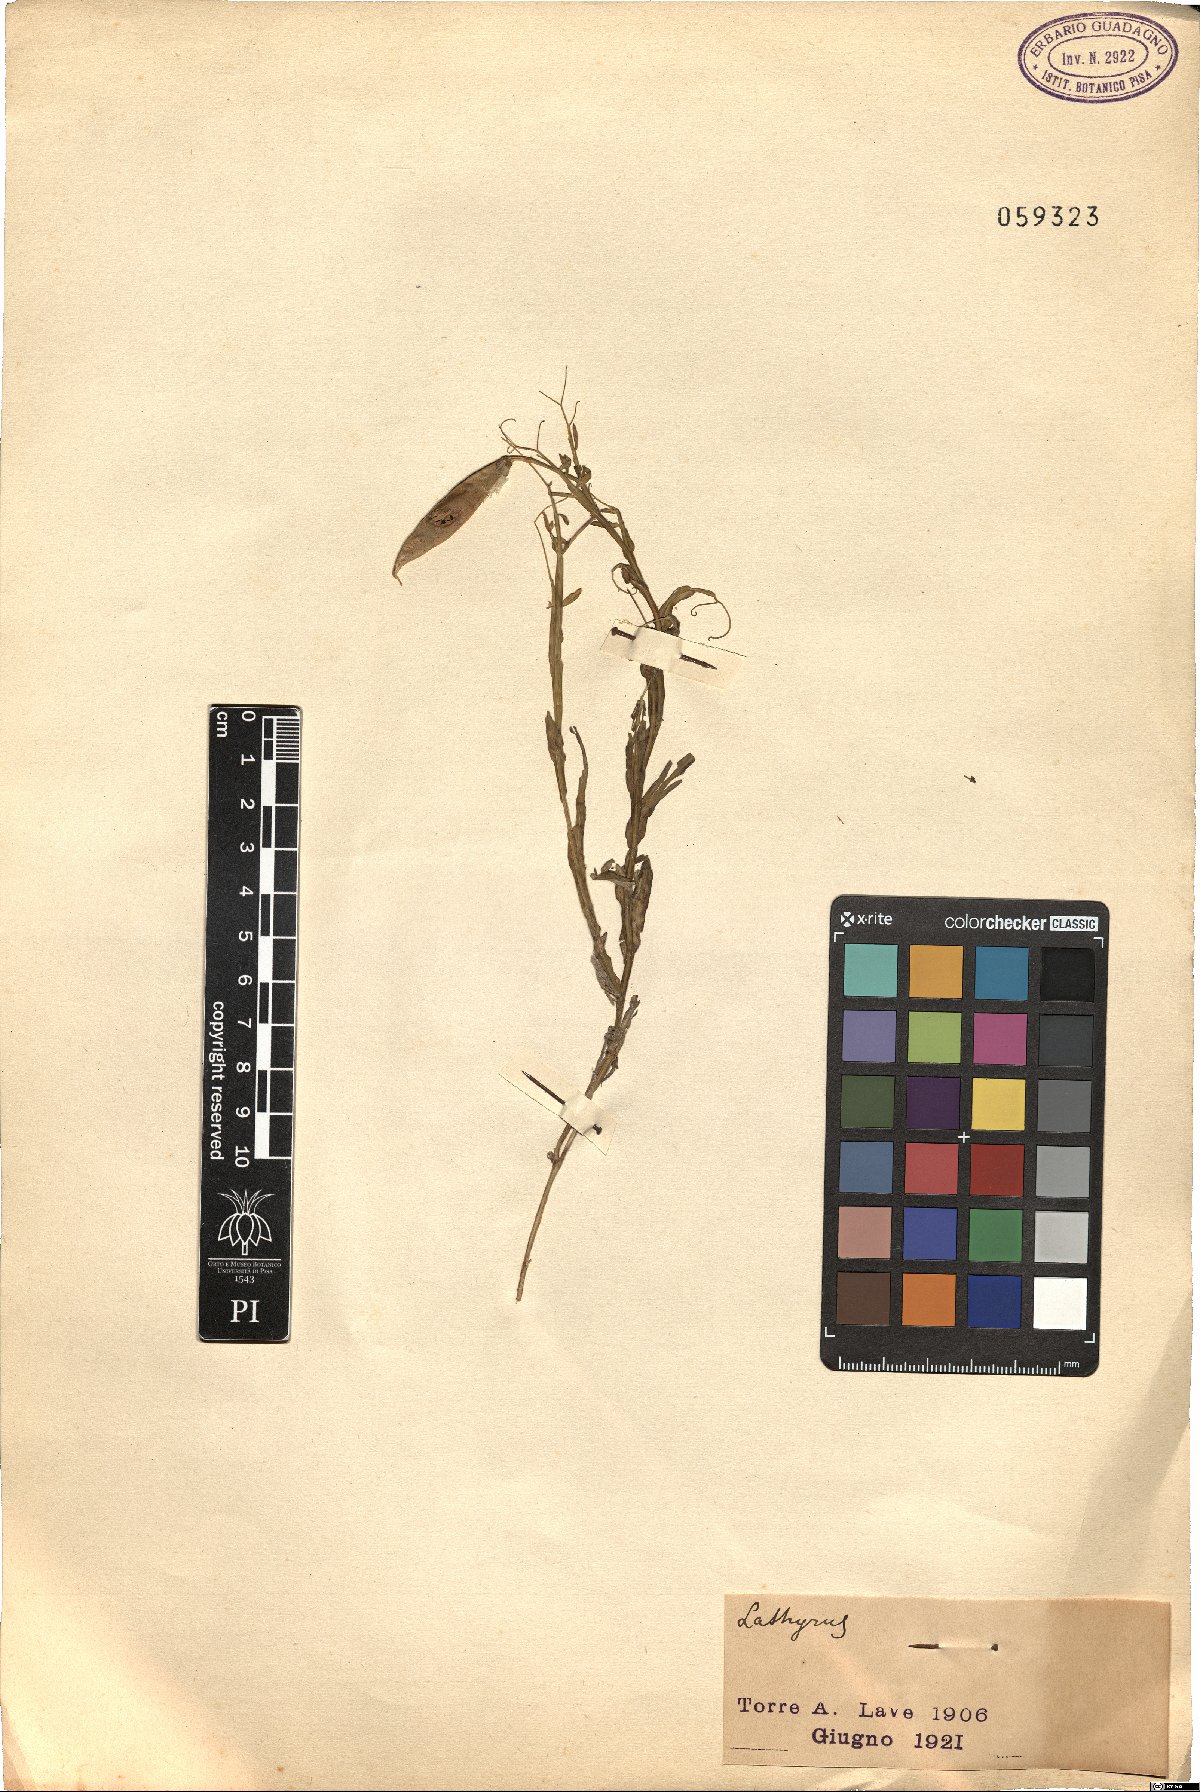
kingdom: Plantae
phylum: Tracheophyta
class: Magnoliopsida
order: Fabales
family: Fabaceae
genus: Lathyrus
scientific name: Lathyrus
